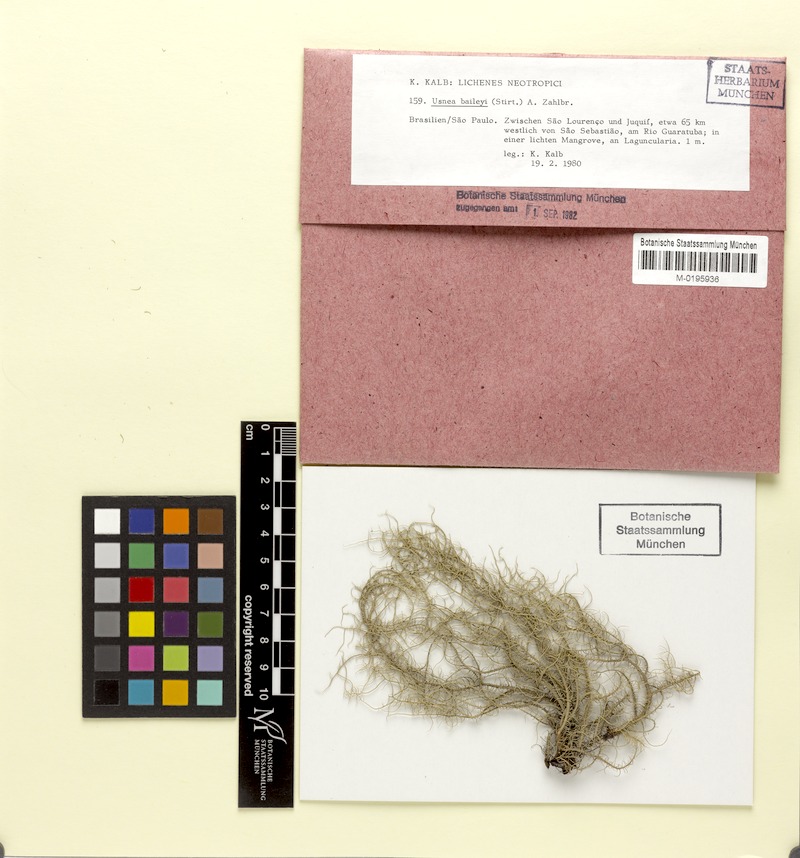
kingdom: Fungi
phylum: Ascomycota
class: Lecanoromycetes
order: Lecanorales
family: Parmeliaceae
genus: Eumitria
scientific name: Eumitria baileyi
